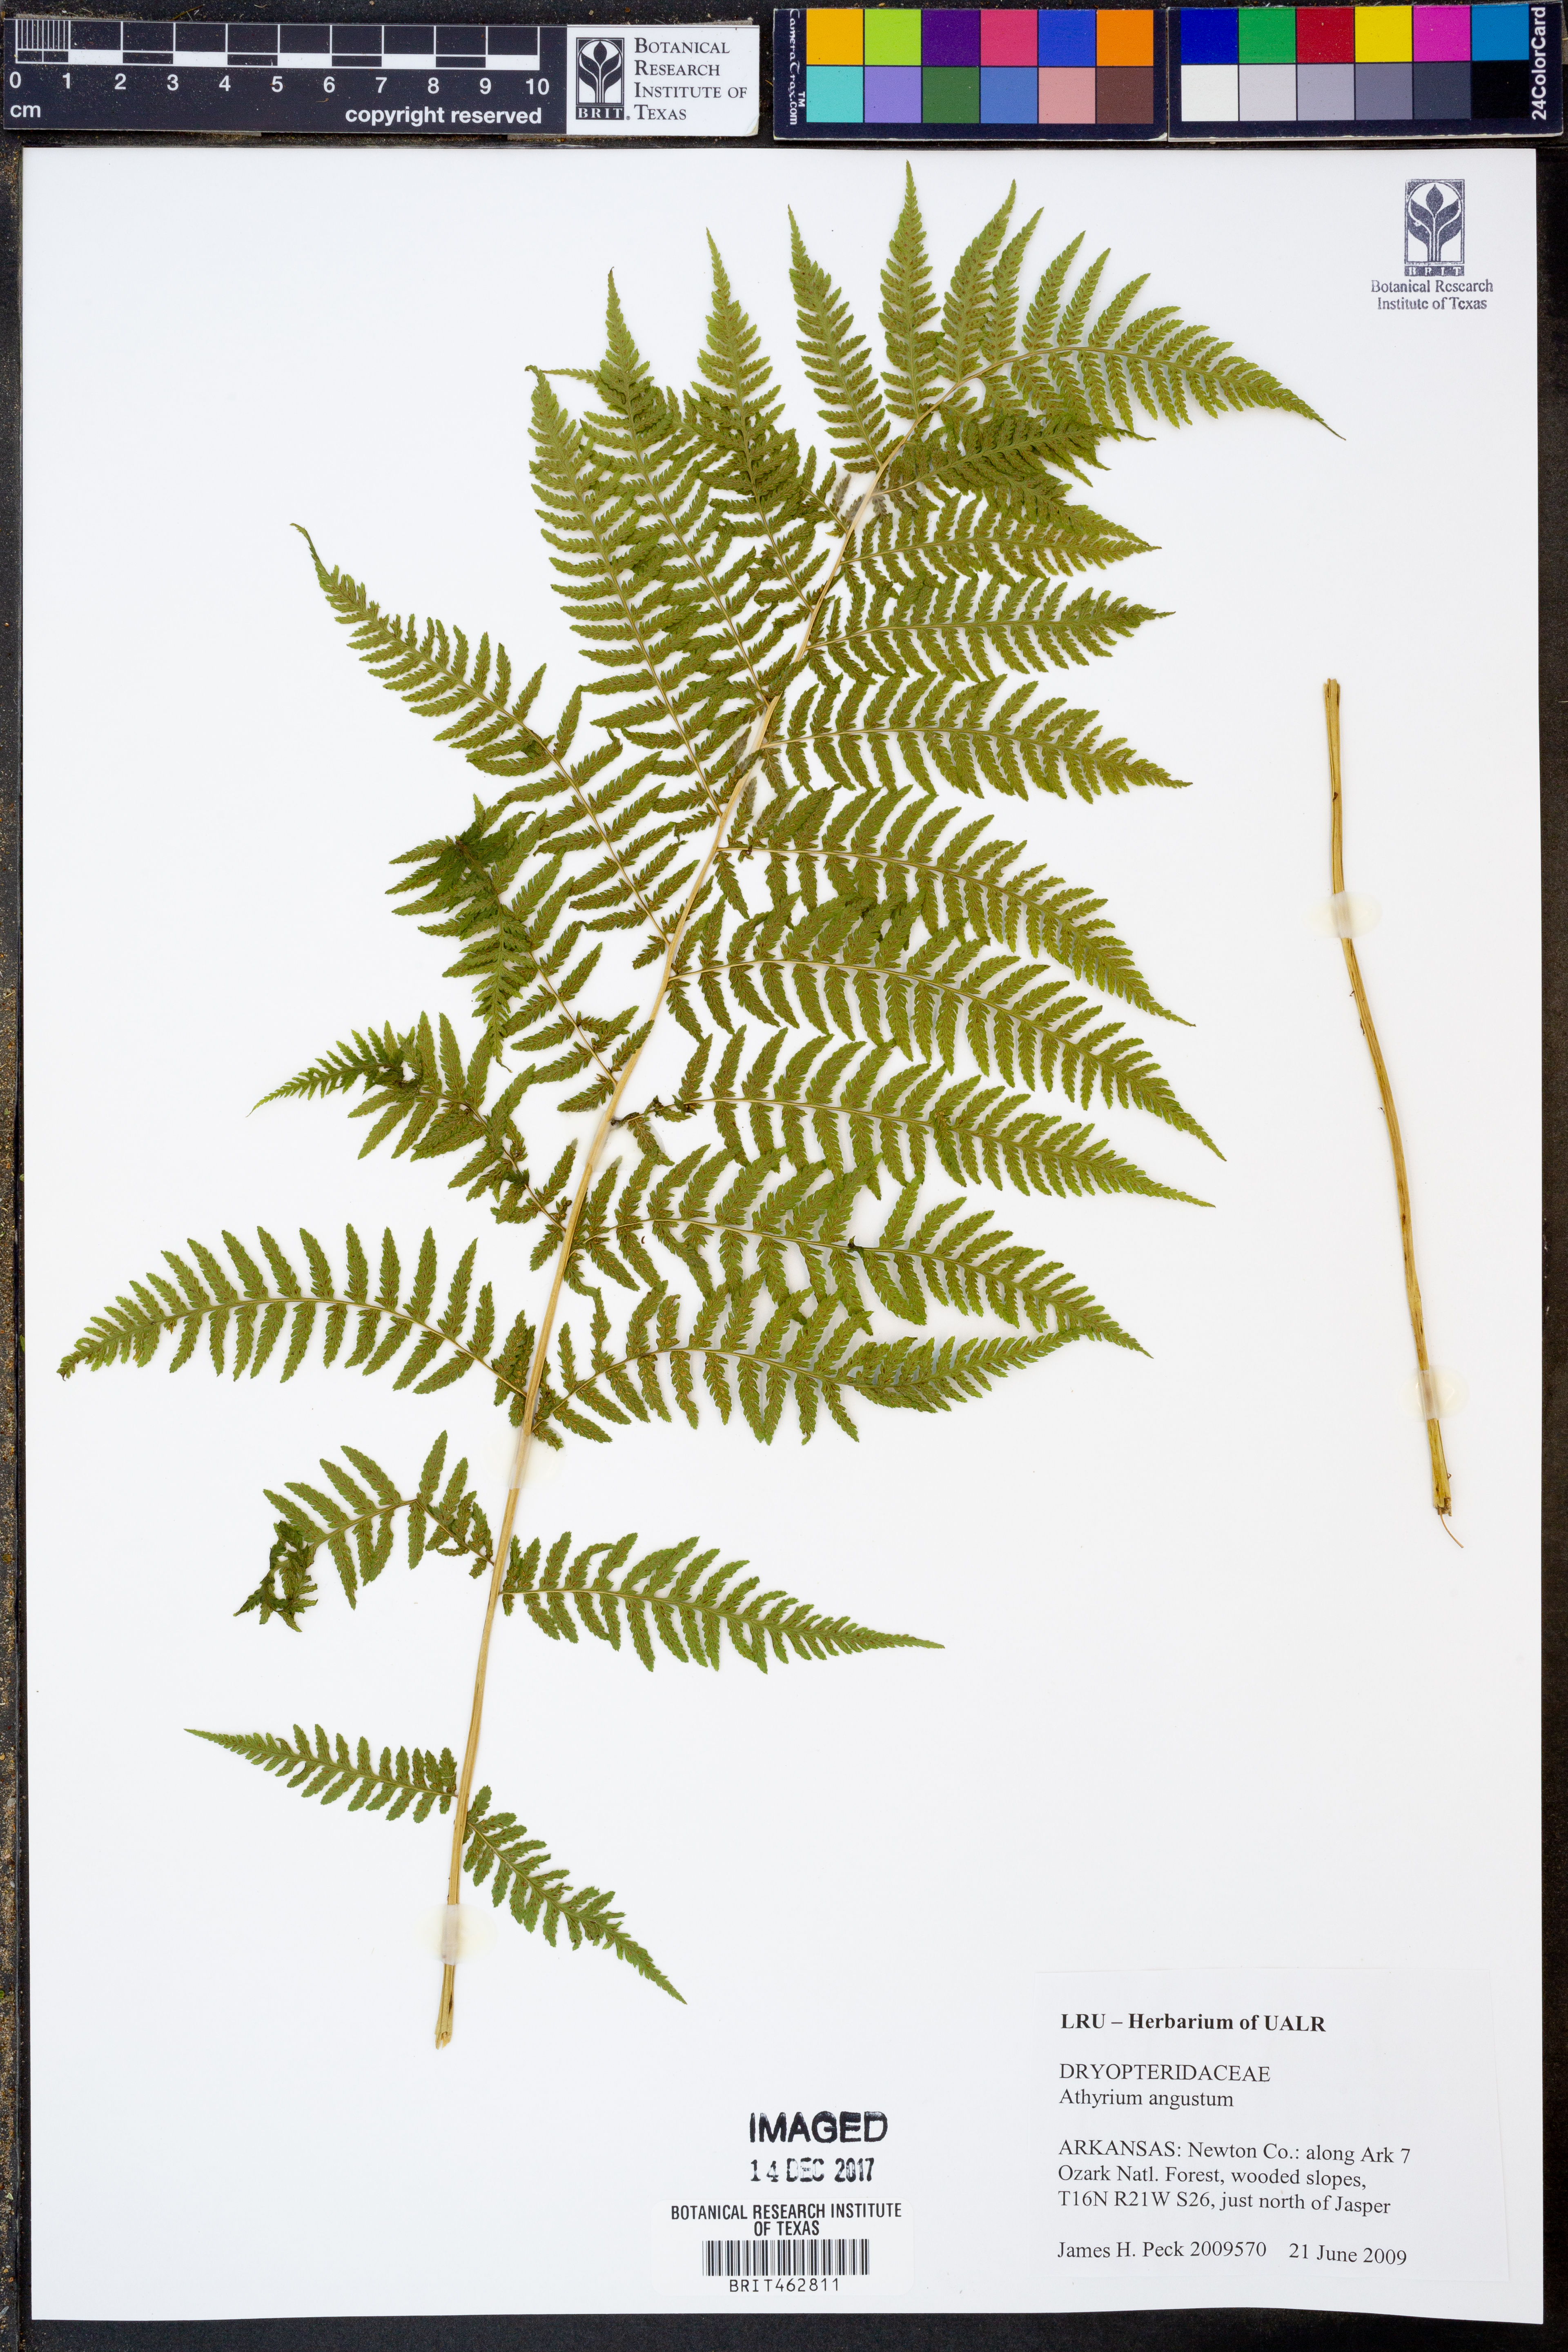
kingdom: Plantae
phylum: Tracheophyta
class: Polypodiopsida
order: Polypodiales
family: Athyriaceae
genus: Athyrium
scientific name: Athyrium angustum
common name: Northern lady fern
